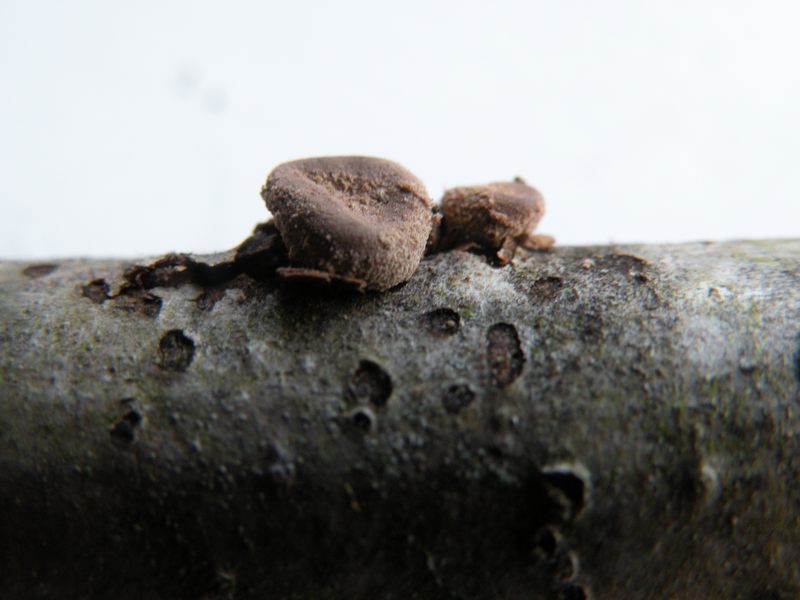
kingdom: Fungi
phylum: Ascomycota
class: Leotiomycetes
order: Helotiales
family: Cenangiaceae
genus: Encoelia
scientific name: Encoelia furfuracea
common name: hassel-læderskive
